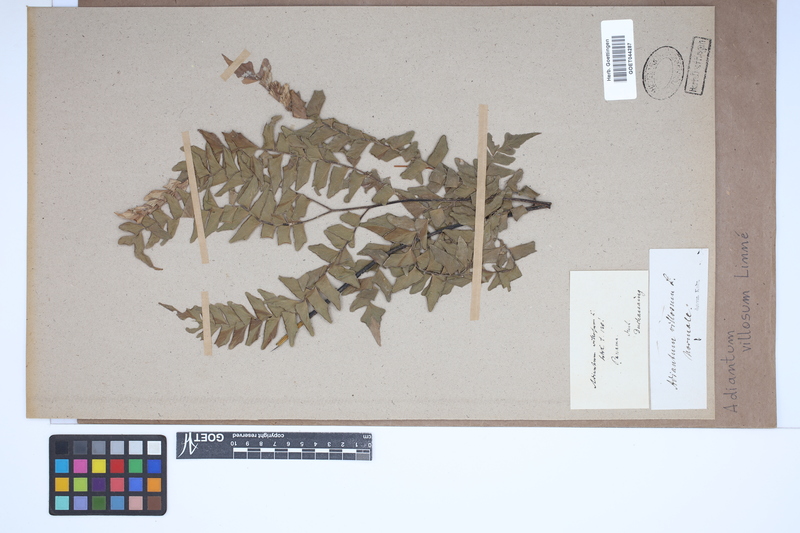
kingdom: Plantae
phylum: Tracheophyta
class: Polypodiopsida
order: Polypodiales
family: Pteridaceae
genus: Adiantum
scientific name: Adiantum villosum
